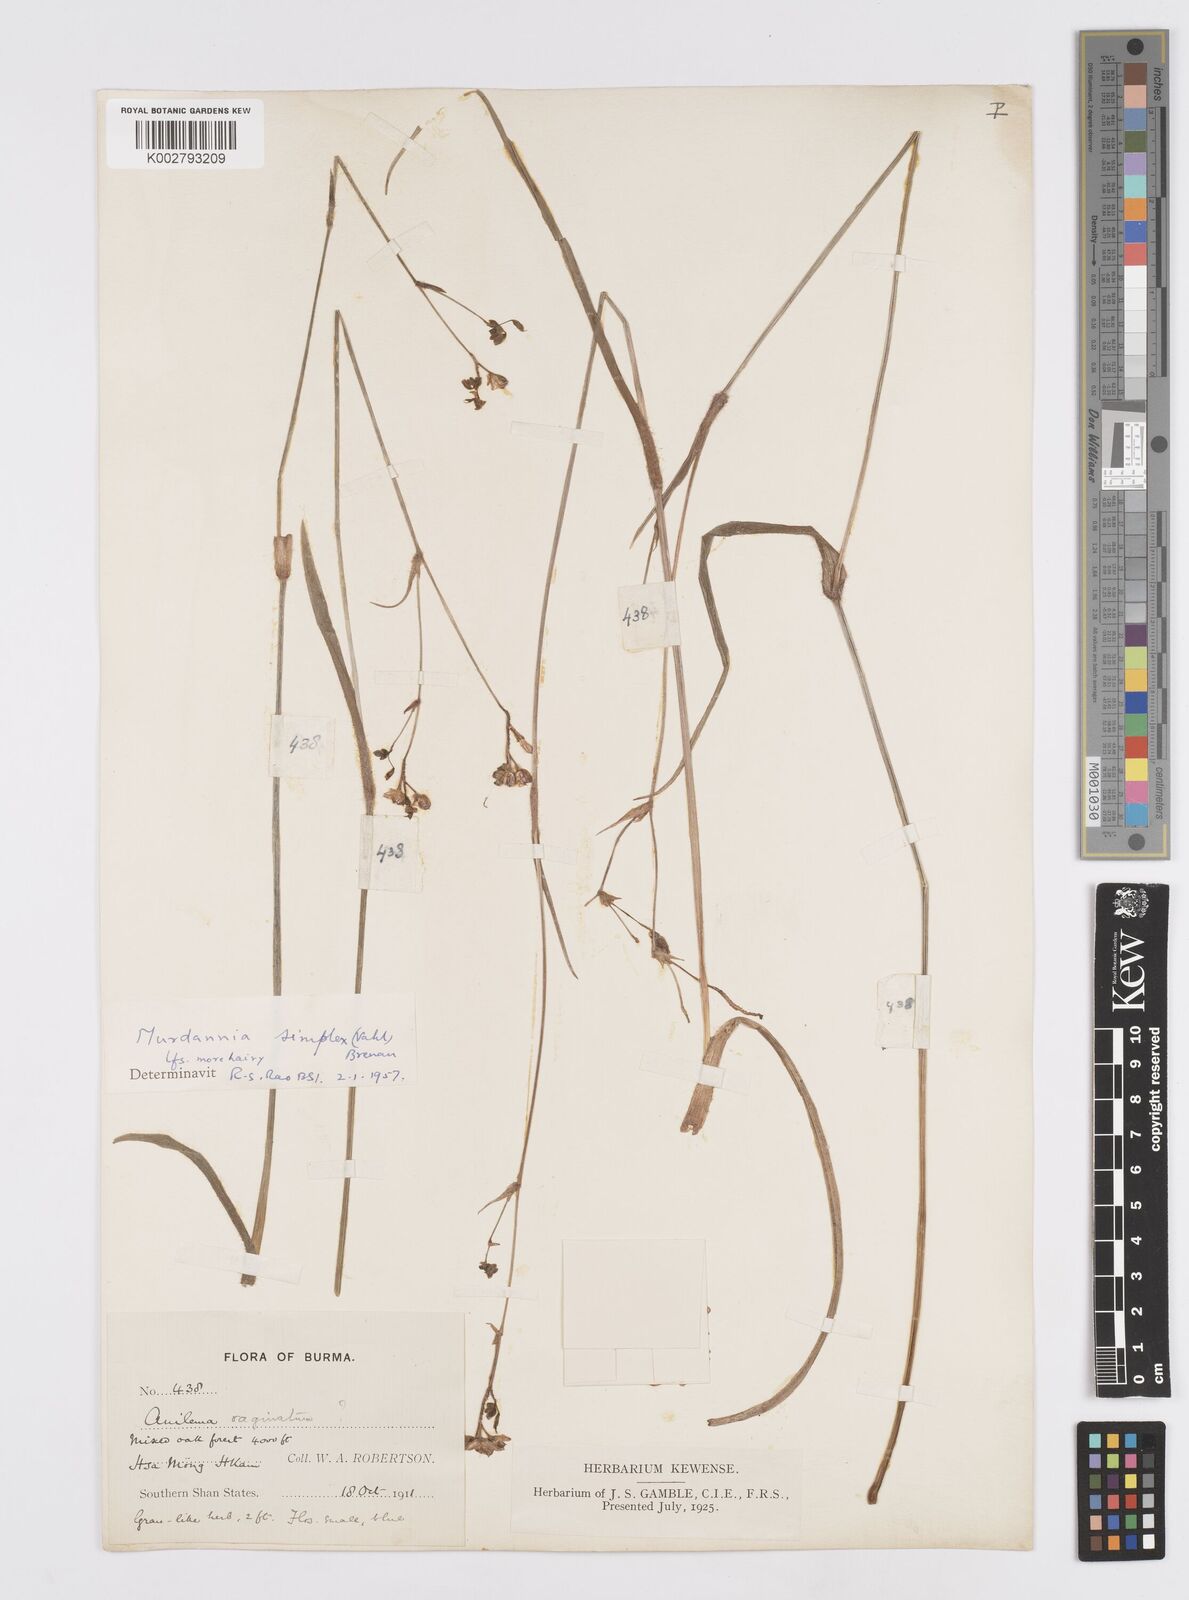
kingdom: Plantae
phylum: Tracheophyta
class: Liliopsida
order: Commelinales
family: Commelinaceae
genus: Murdannia
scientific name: Murdannia simplex
